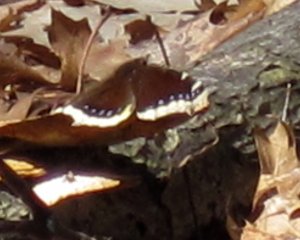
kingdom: Animalia
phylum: Arthropoda
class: Insecta
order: Lepidoptera
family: Nymphalidae
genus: Nymphalis
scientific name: Nymphalis antiopa
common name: Mourning Cloak
